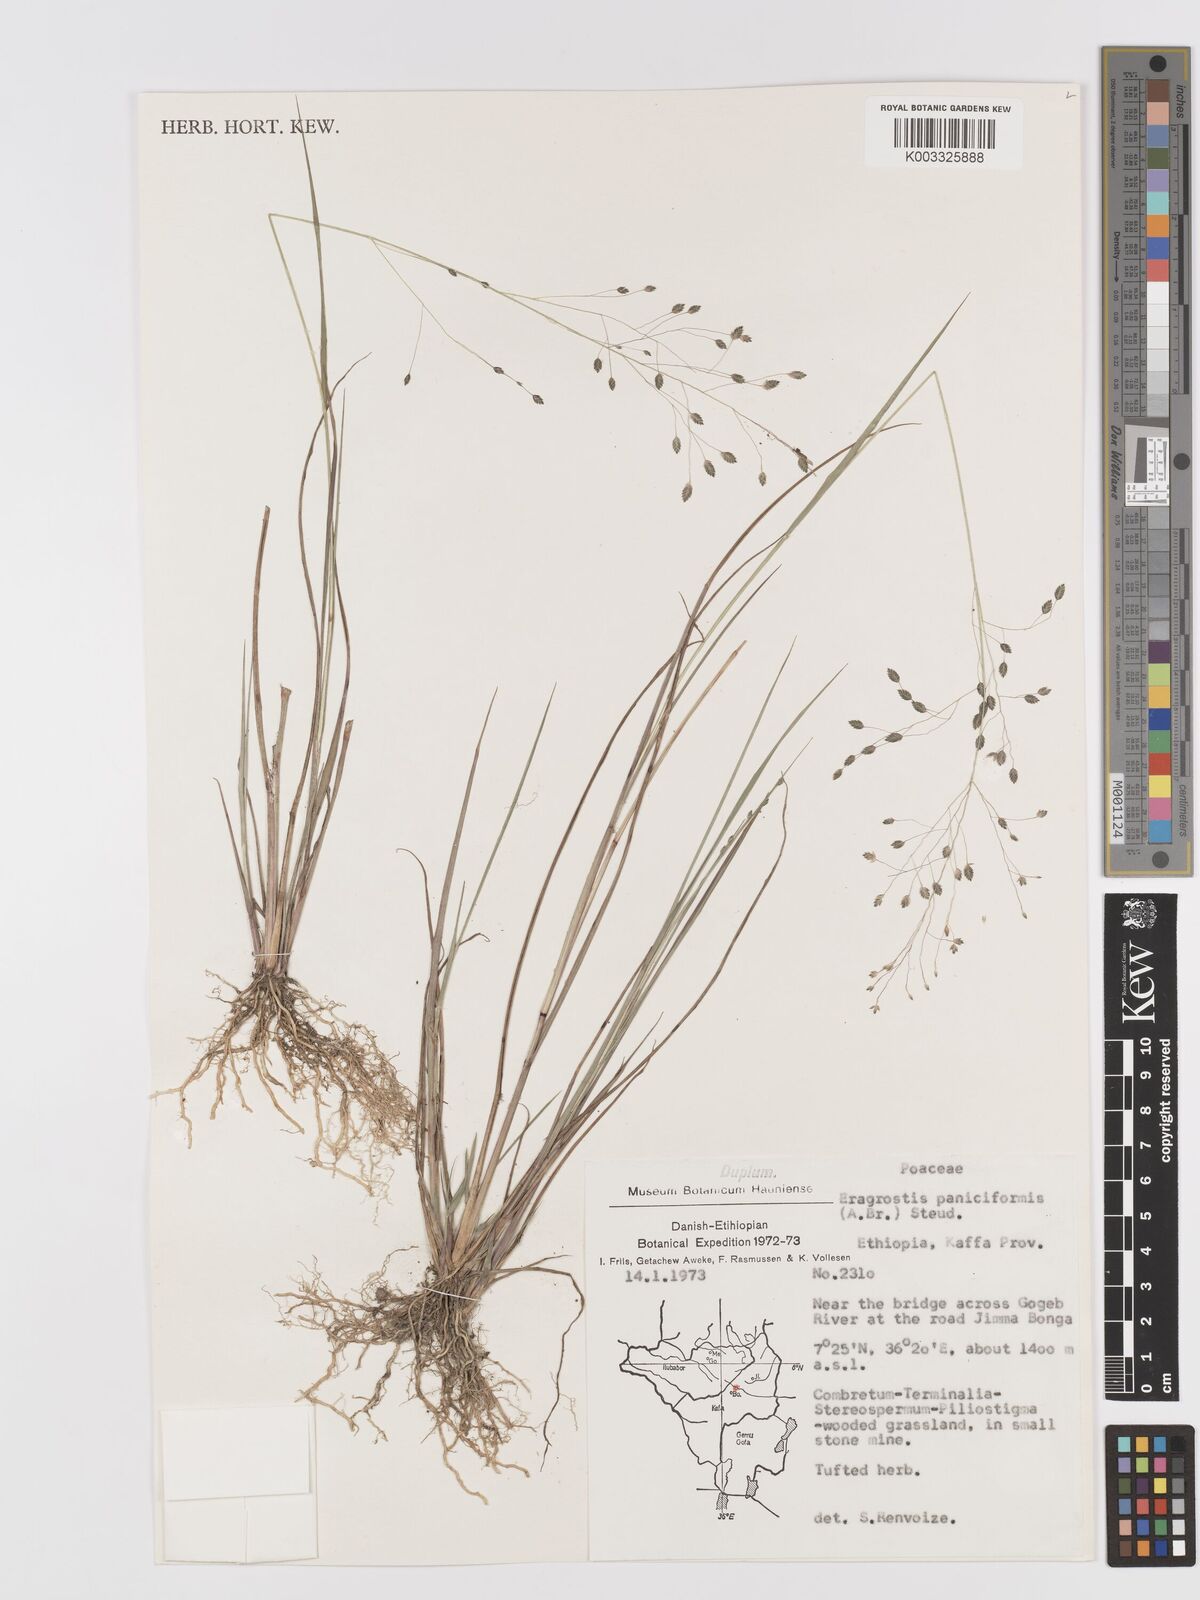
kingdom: Plantae
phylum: Tracheophyta
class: Liliopsida
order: Poales
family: Poaceae
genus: Eragrostis
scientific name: Eragrostis paniciformis
